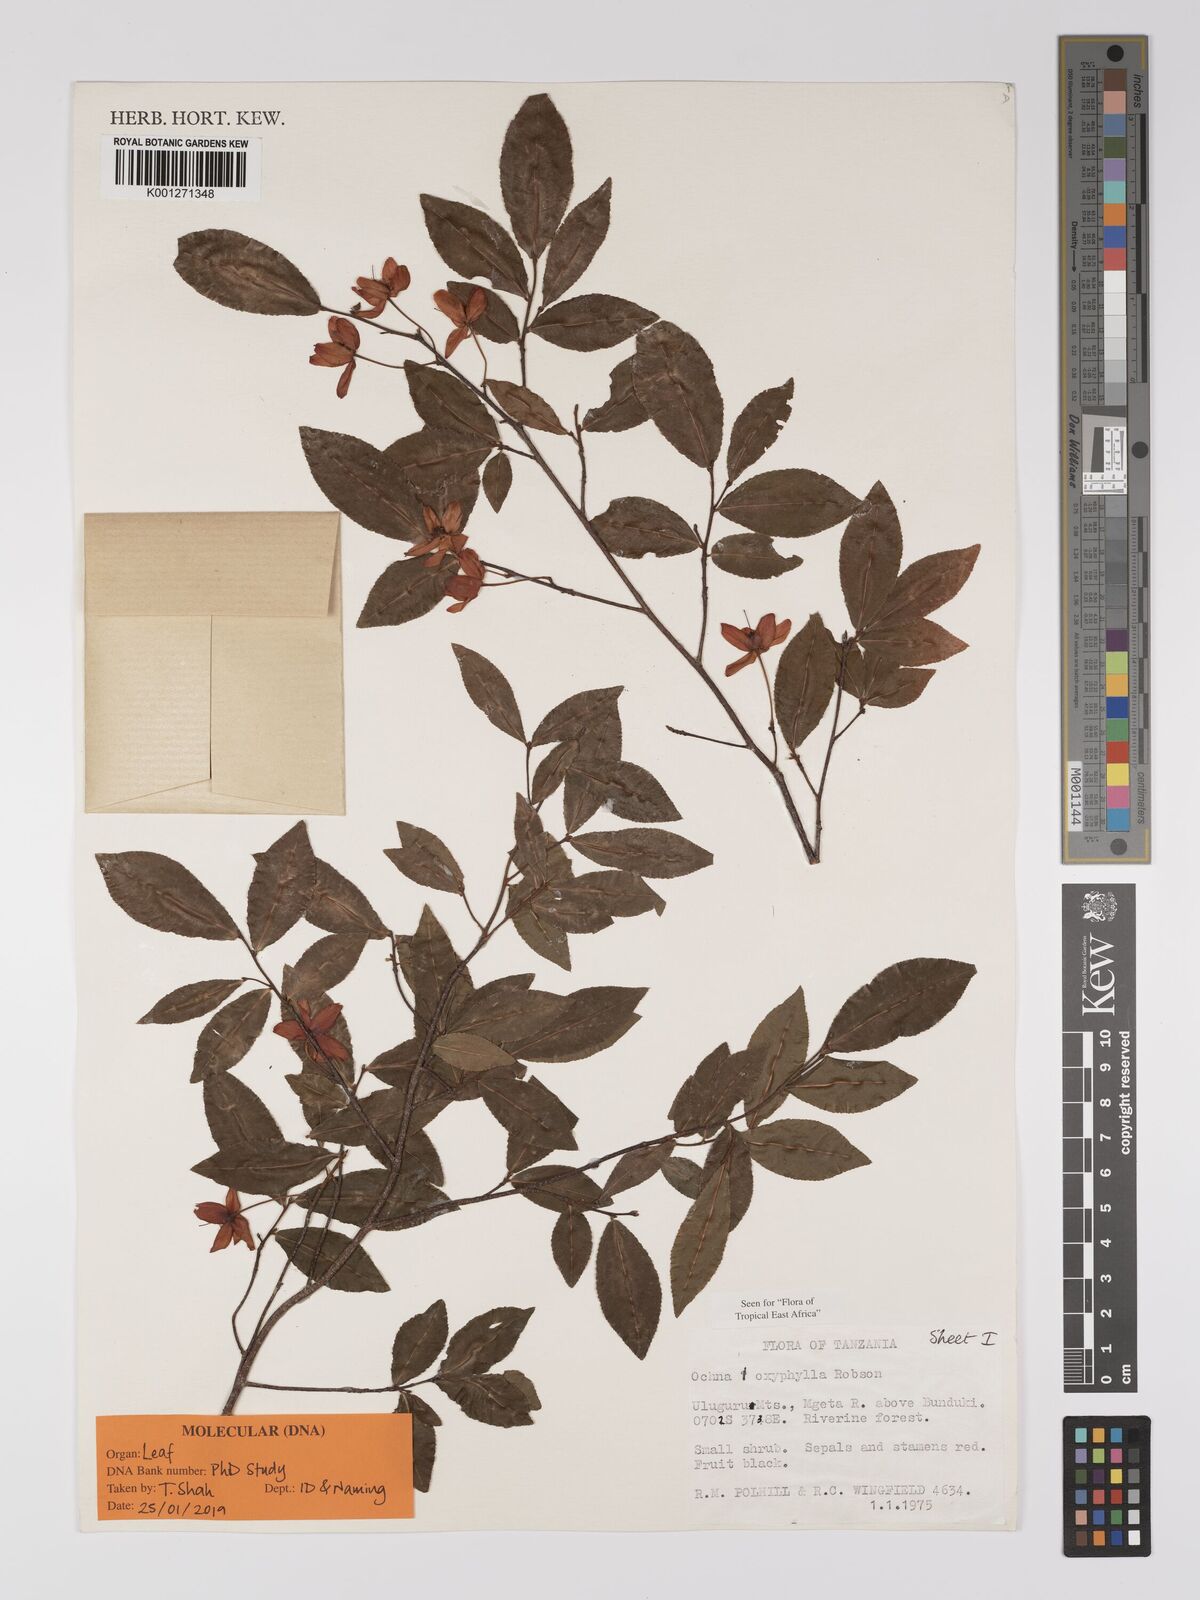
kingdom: Plantae
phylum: Tracheophyta
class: Magnoliopsida
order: Malpighiales
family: Ochnaceae
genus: Ochna
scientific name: Ochna oxyphylla
